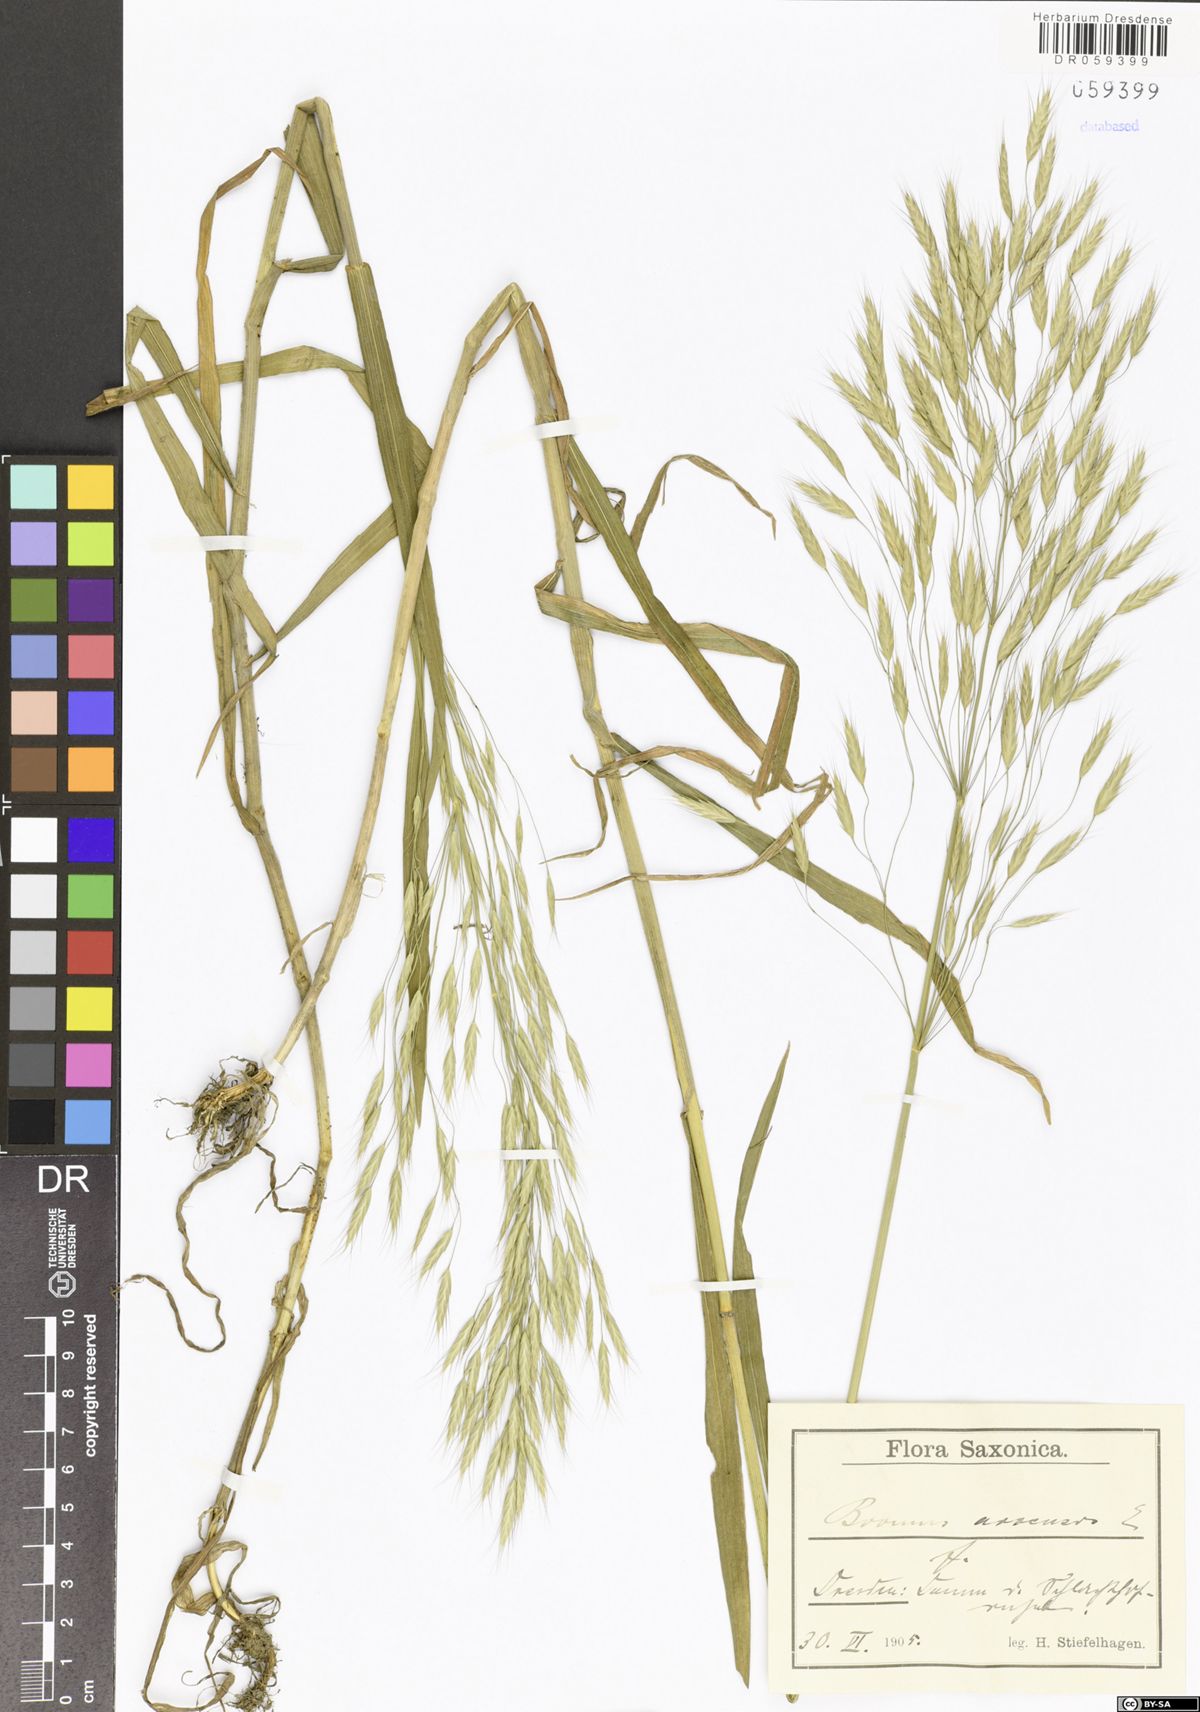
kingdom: Plantae
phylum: Tracheophyta
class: Liliopsida
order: Poales
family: Poaceae
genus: Bromus
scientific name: Bromus arvensis
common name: Field brome
